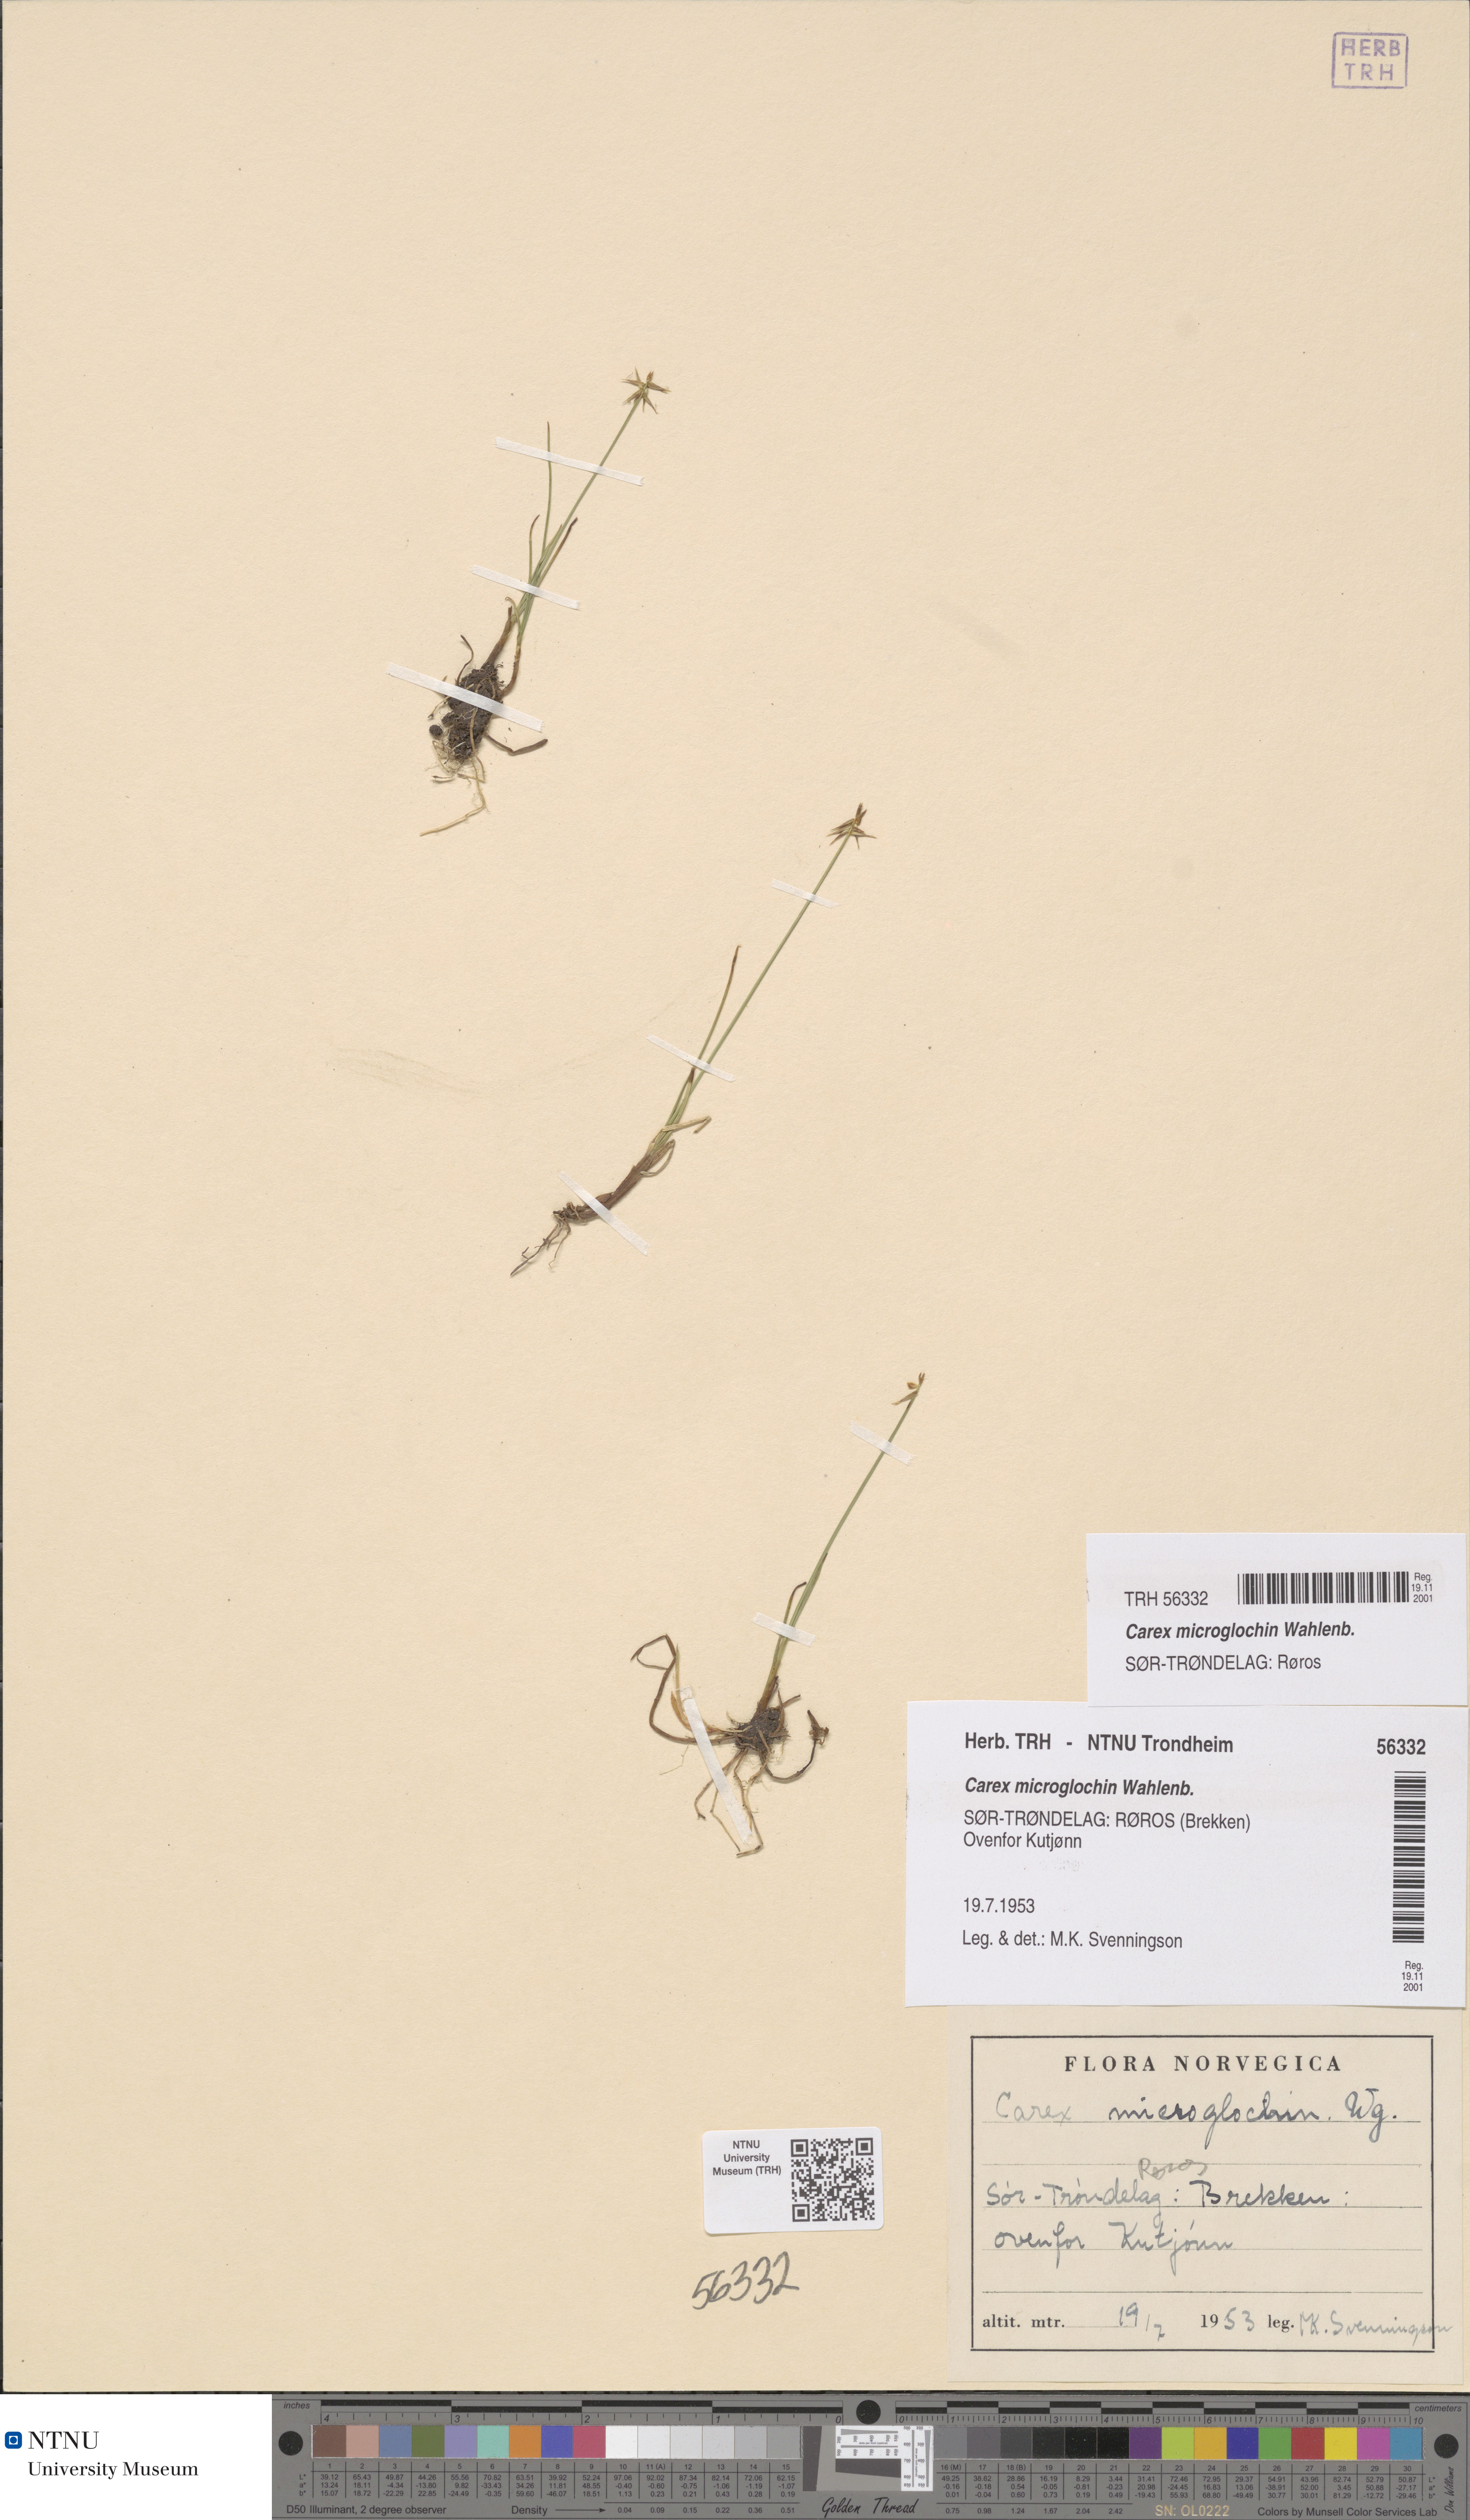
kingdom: Plantae
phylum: Tracheophyta
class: Liliopsida
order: Poales
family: Cyperaceae
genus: Carex
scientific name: Carex microglochin
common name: Bristle sedge
